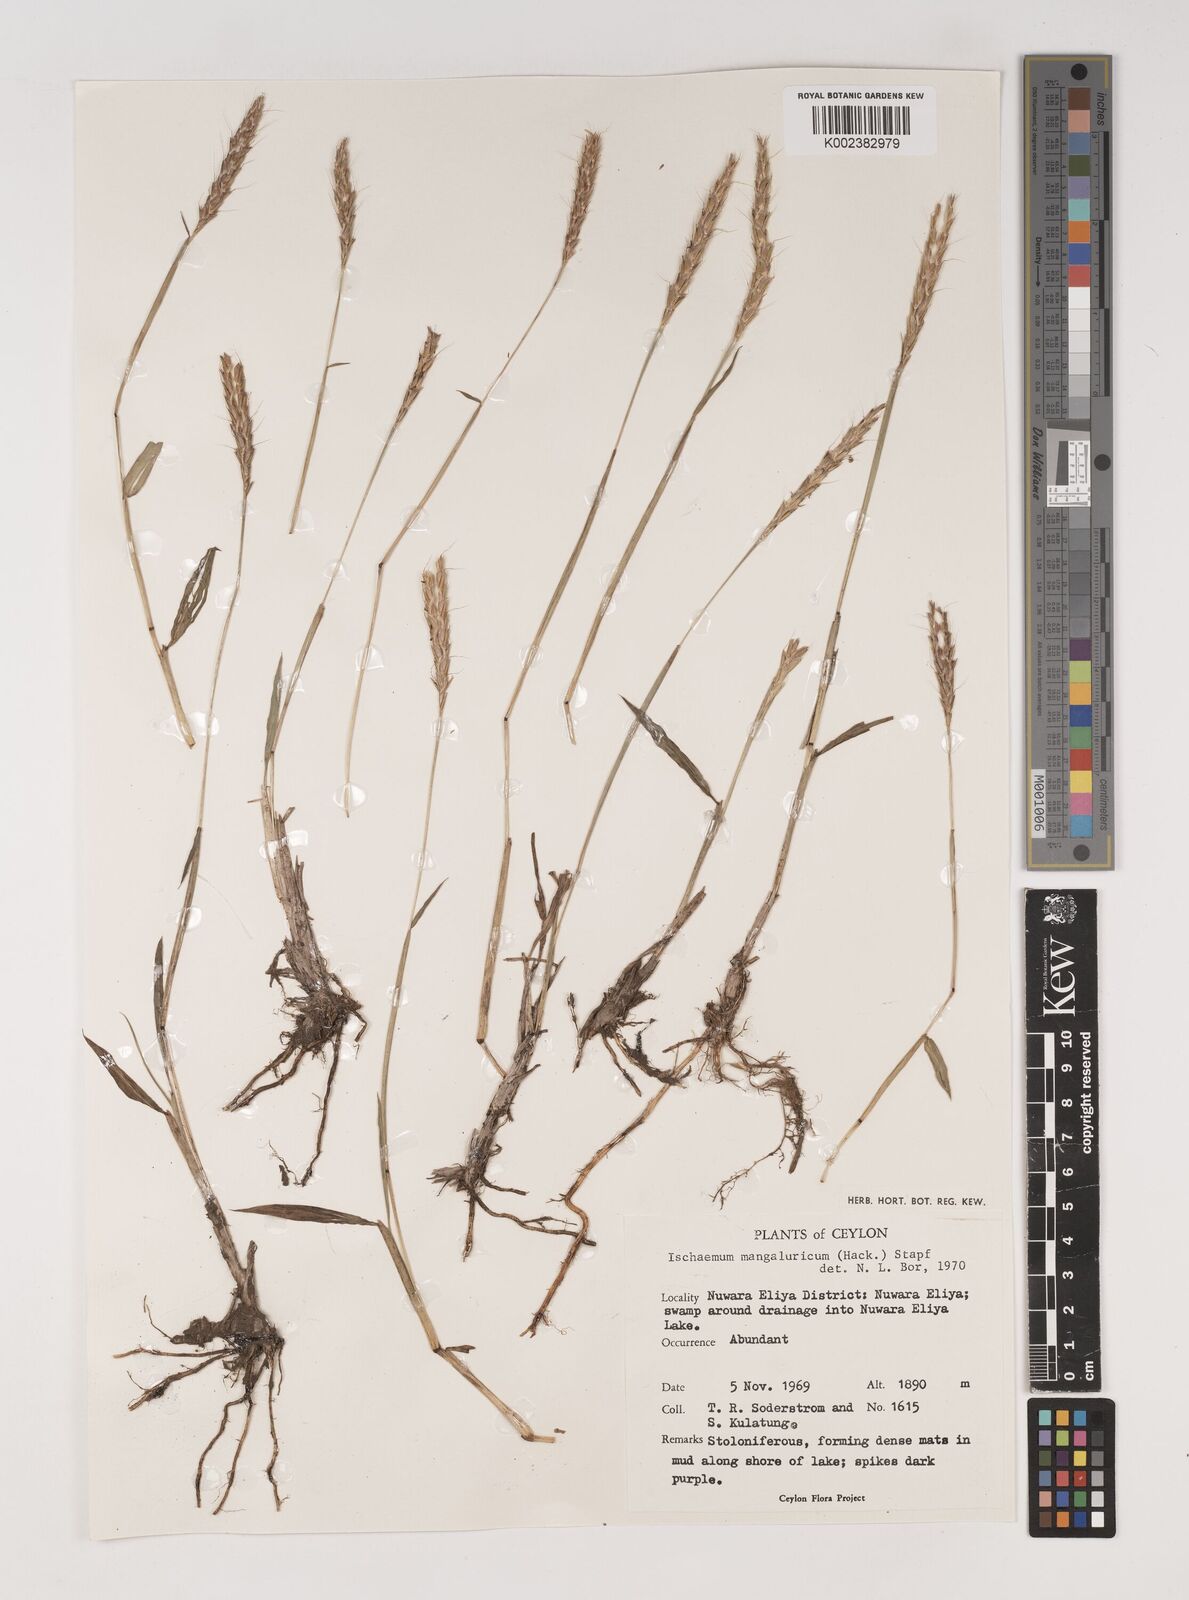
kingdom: Plantae
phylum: Tracheophyta
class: Liliopsida
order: Poales
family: Poaceae
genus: Ischaemum
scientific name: Ischaemum barbatum
